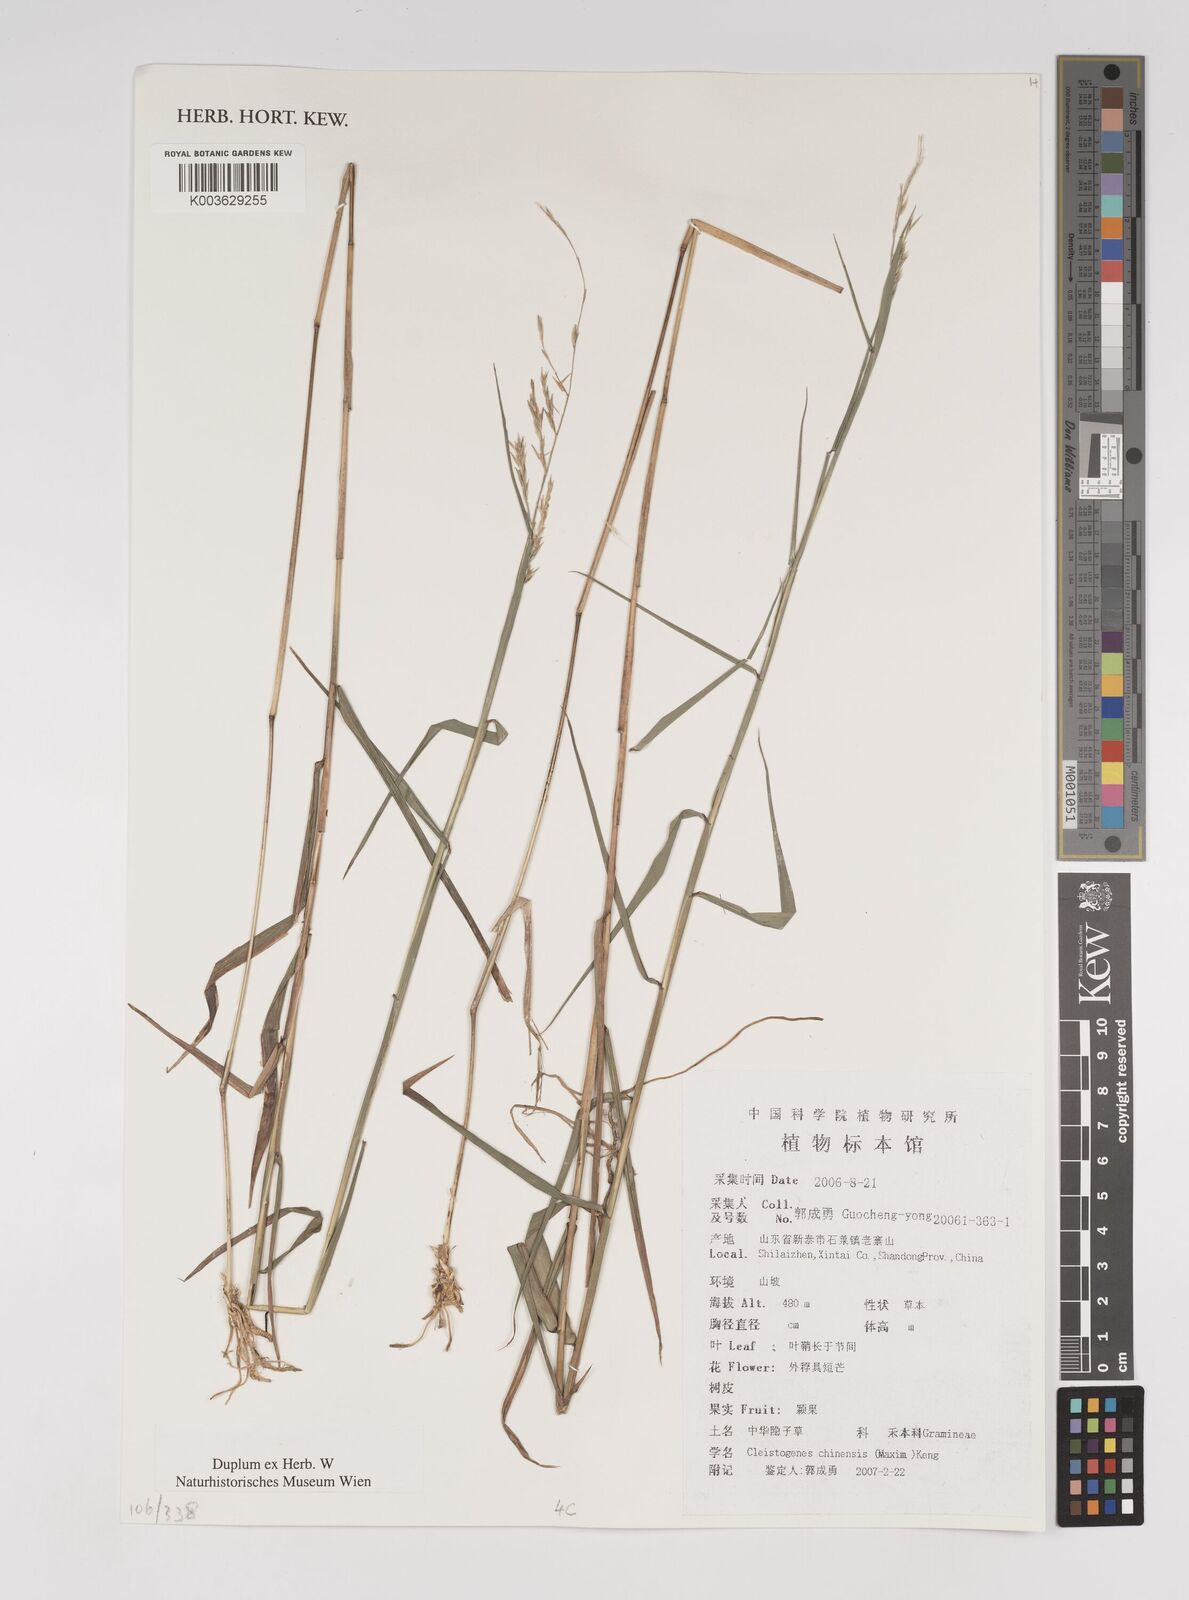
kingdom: Plantae
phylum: Tracheophyta
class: Liliopsida
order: Poales
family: Poaceae
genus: Cleistogenes
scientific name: Cleistogenes hackelii
